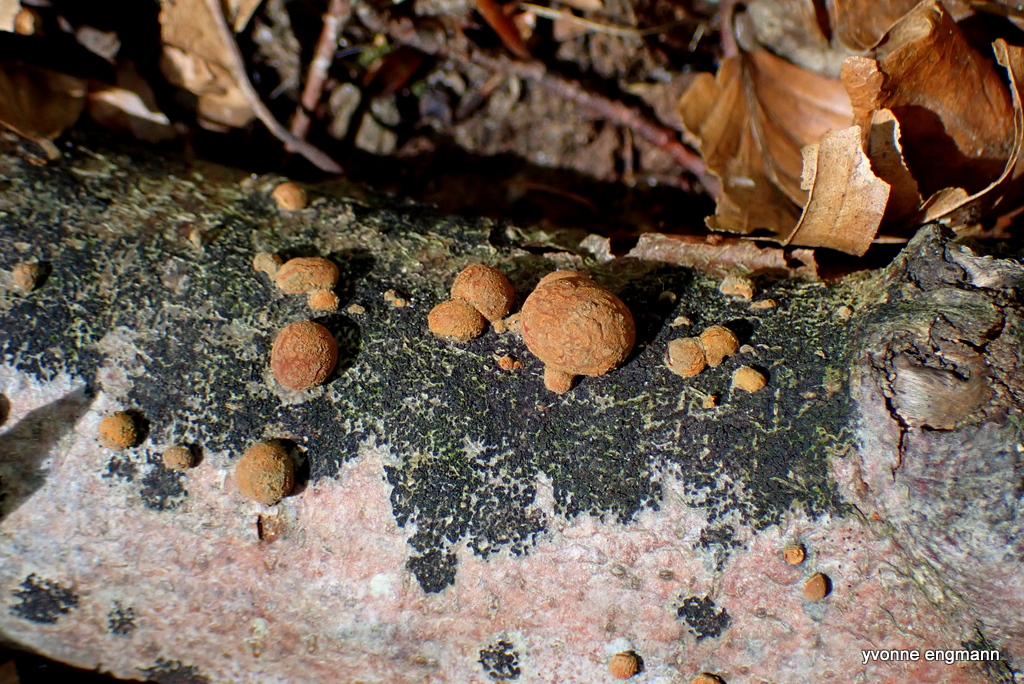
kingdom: Fungi
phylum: Ascomycota
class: Sordariomycetes
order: Xylariales
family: Hypoxylaceae
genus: Hypoxylon
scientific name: Hypoxylon fragiforme
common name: kuljordbær
